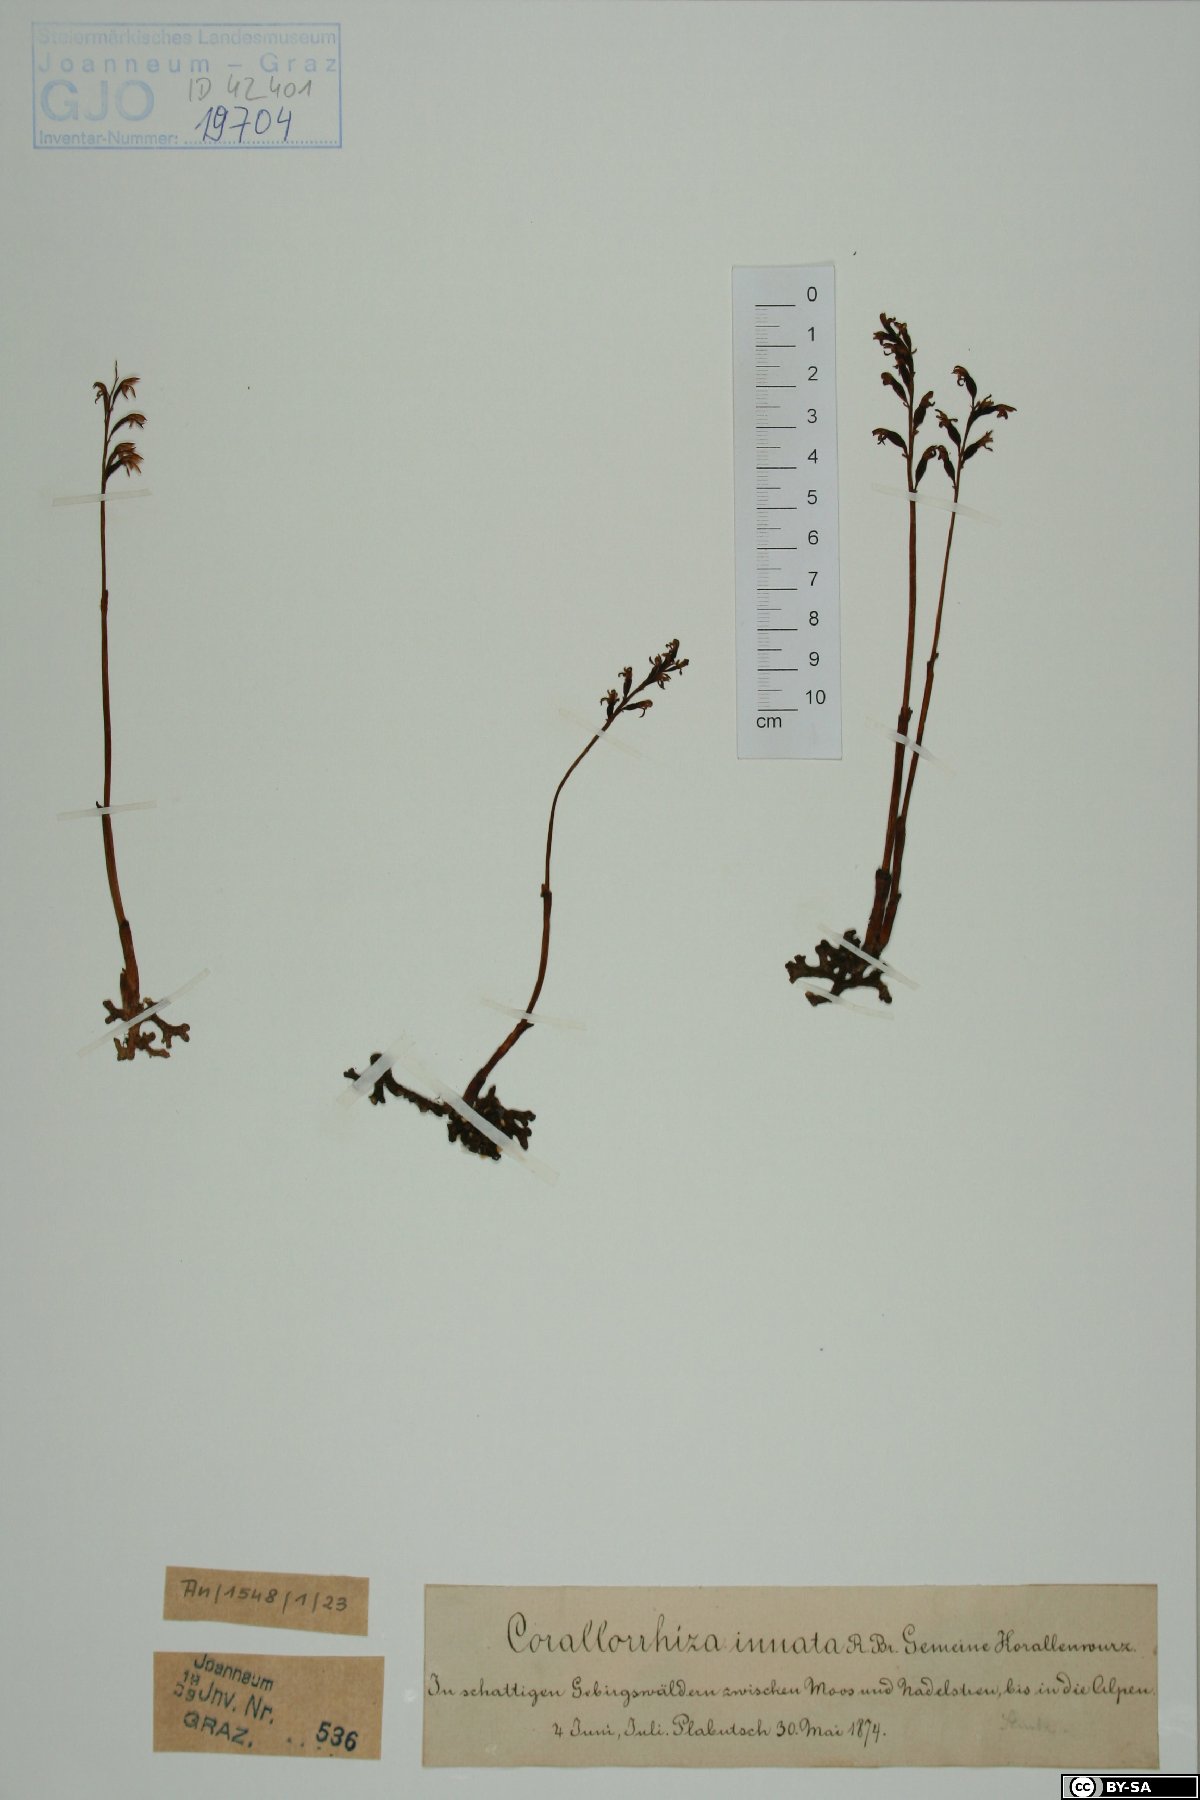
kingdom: Plantae
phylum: Tracheophyta
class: Liliopsida
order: Asparagales
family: Orchidaceae
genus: Corallorhiza
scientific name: Corallorhiza trifida
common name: Yellow coralroot
